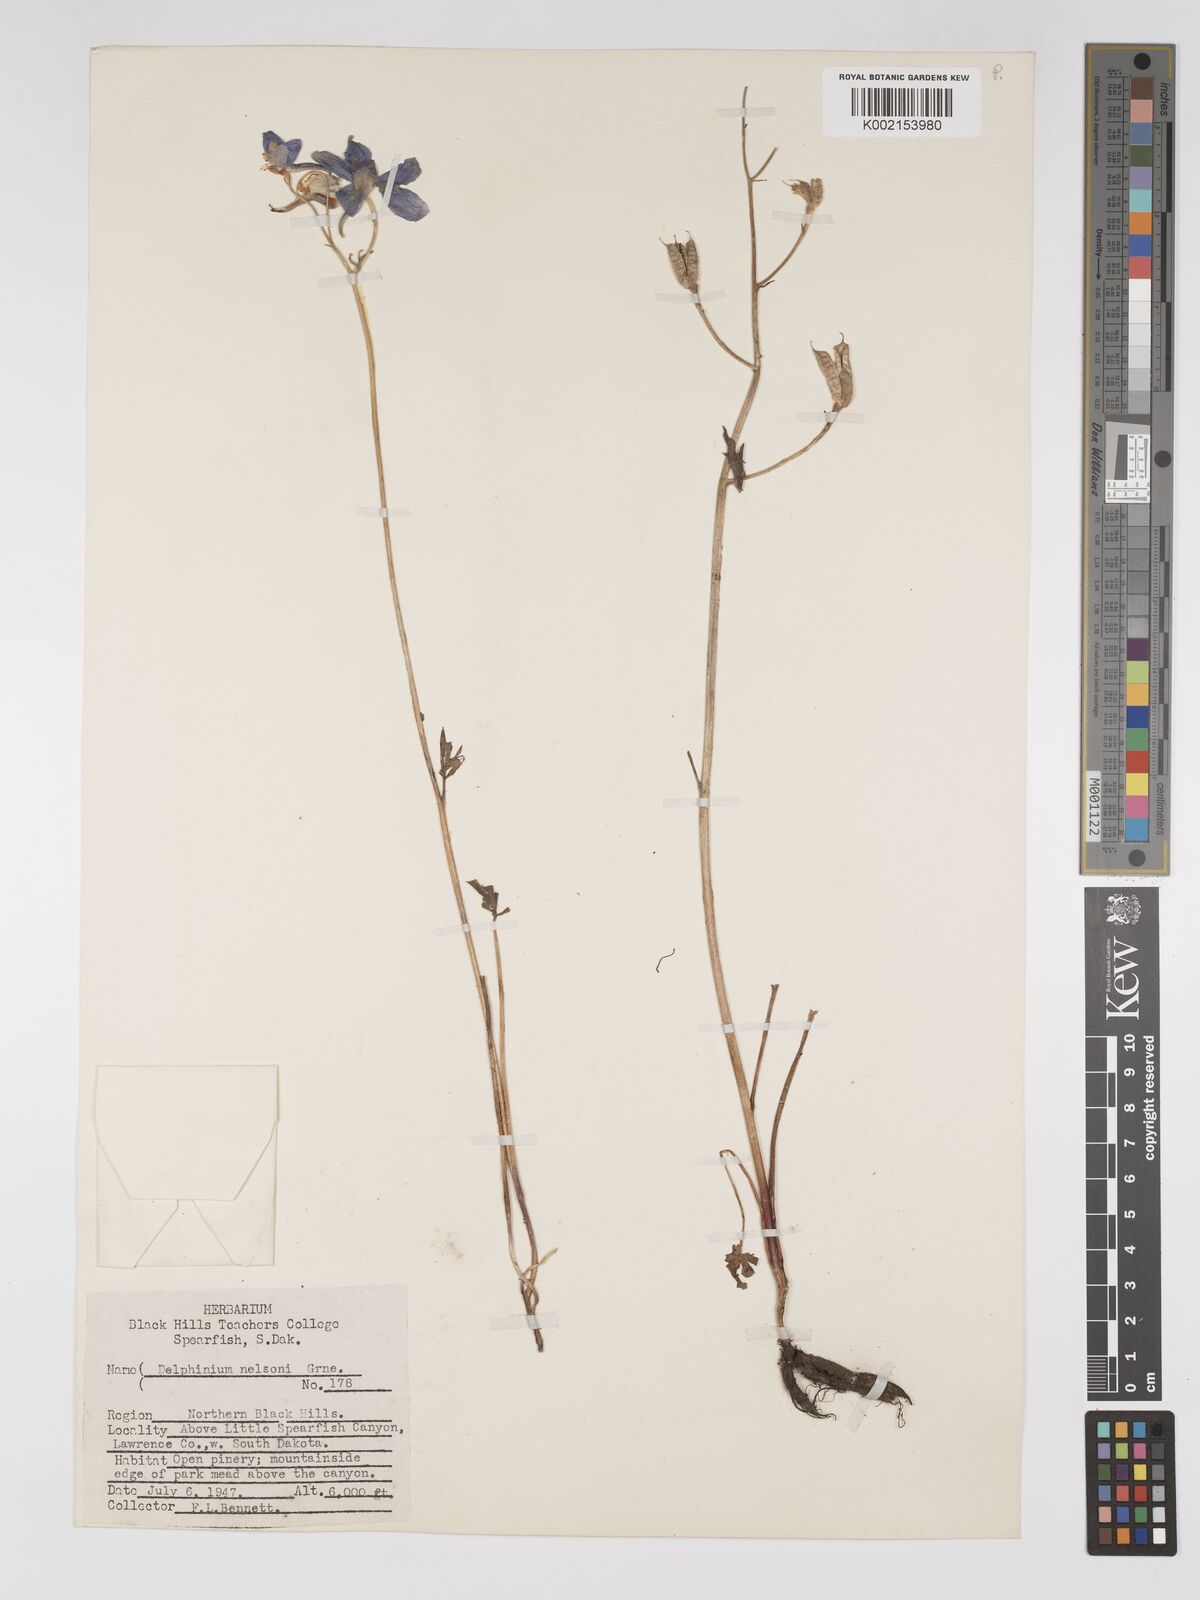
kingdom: Plantae
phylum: Tracheophyta
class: Magnoliopsida
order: Ranunculales
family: Ranunculaceae
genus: Delphinium
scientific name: Delphinium nuttallianum
